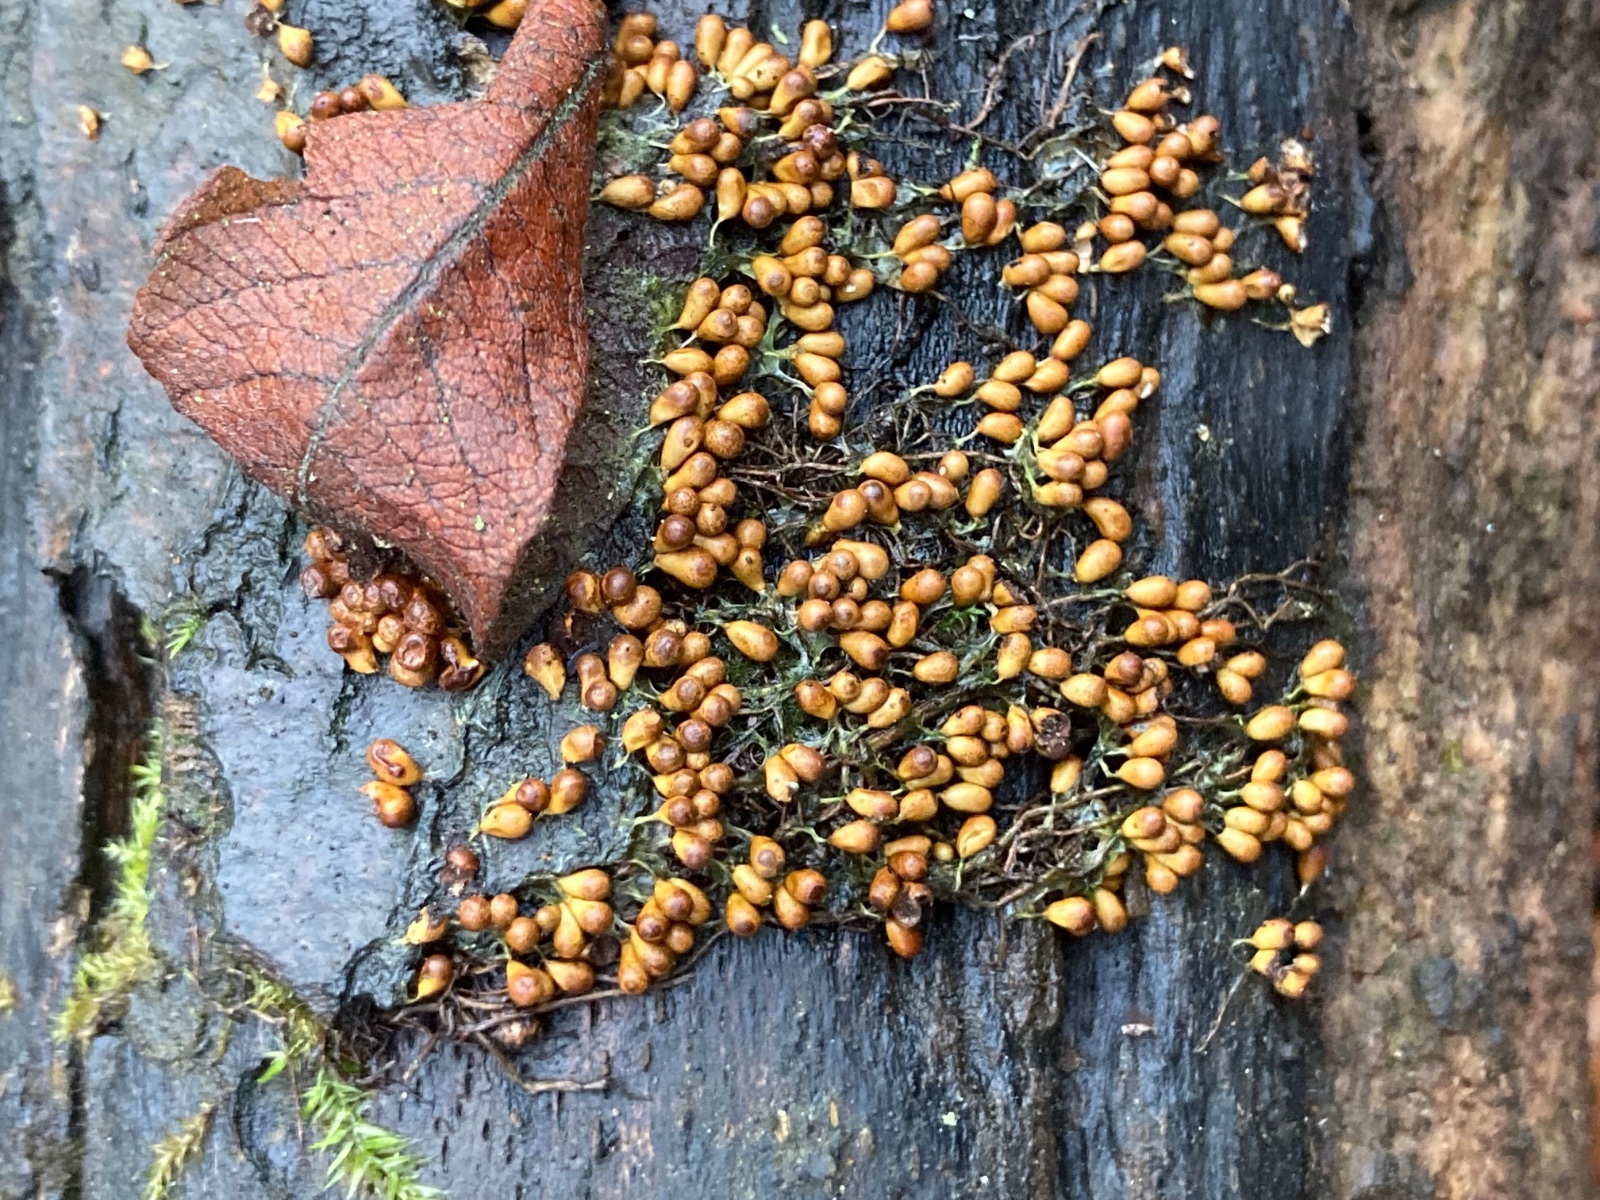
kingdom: Protozoa
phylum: Mycetozoa
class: Myxomycetes
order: Physarales
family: Physaraceae
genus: Leocarpus
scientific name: Leocarpus fragilis
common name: poleret glatfrø
